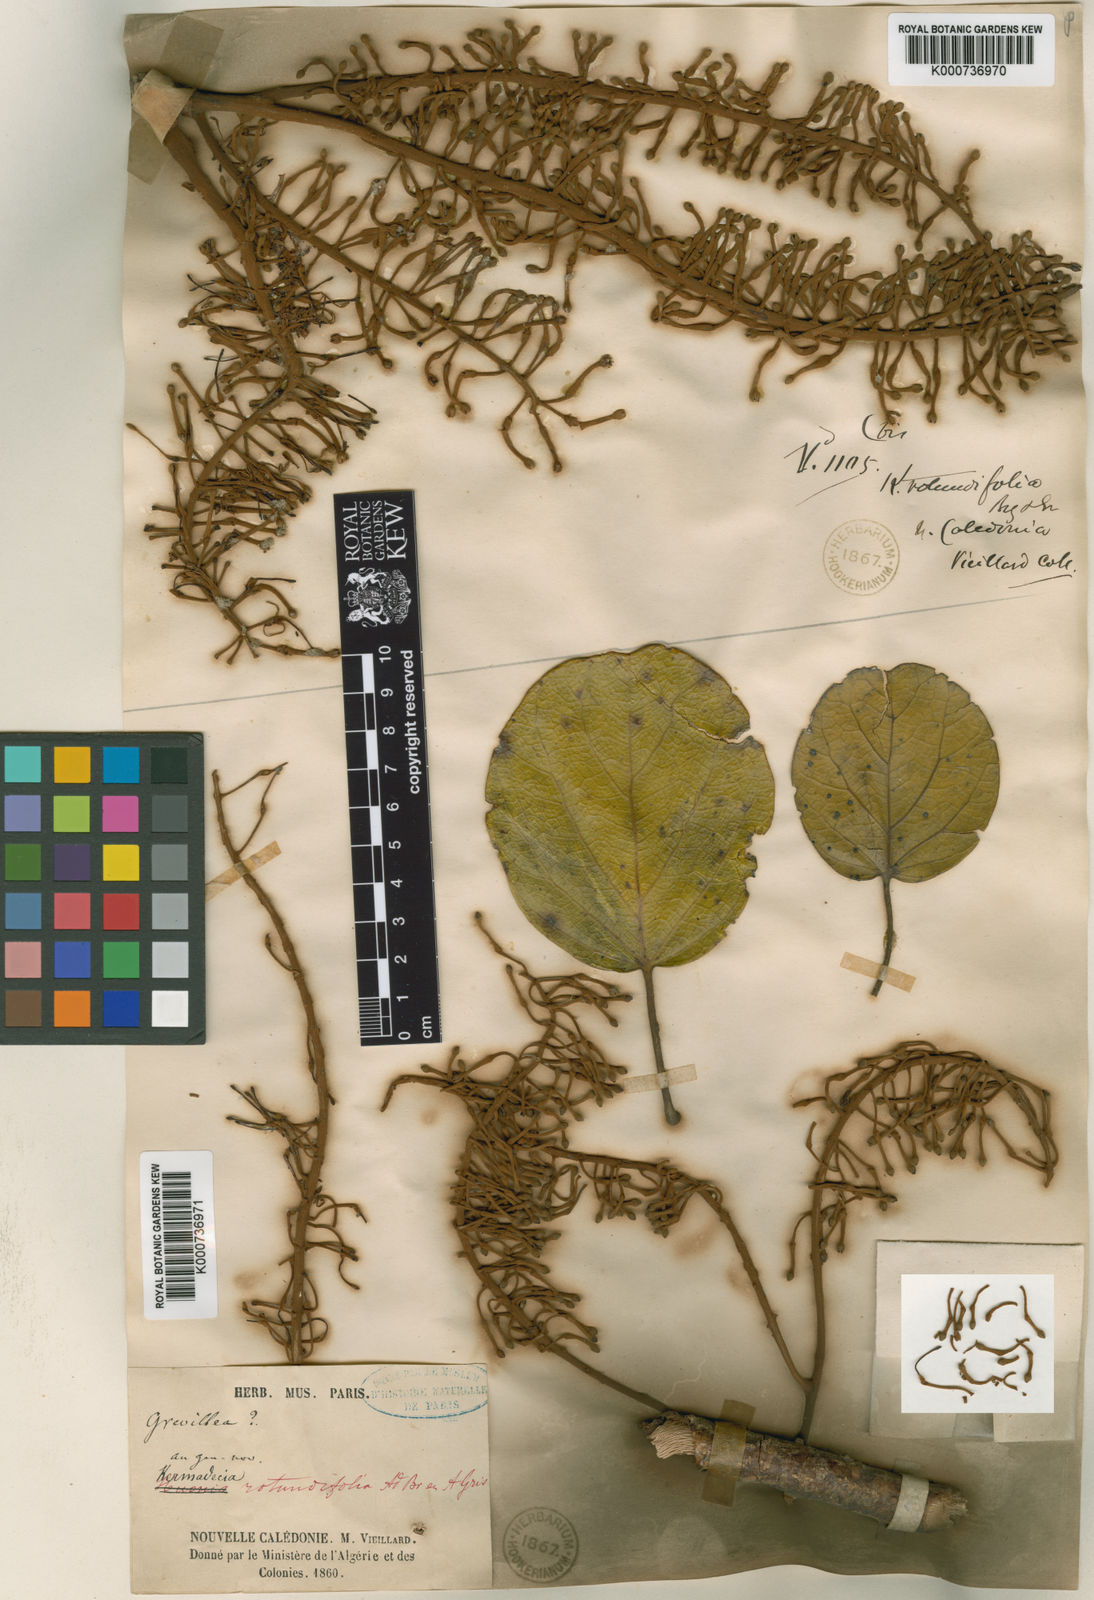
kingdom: Plantae
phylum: Tracheophyta
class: Magnoliopsida
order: Proteales
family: Proteaceae
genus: Kermadecia
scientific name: Kermadecia rotundifolia
